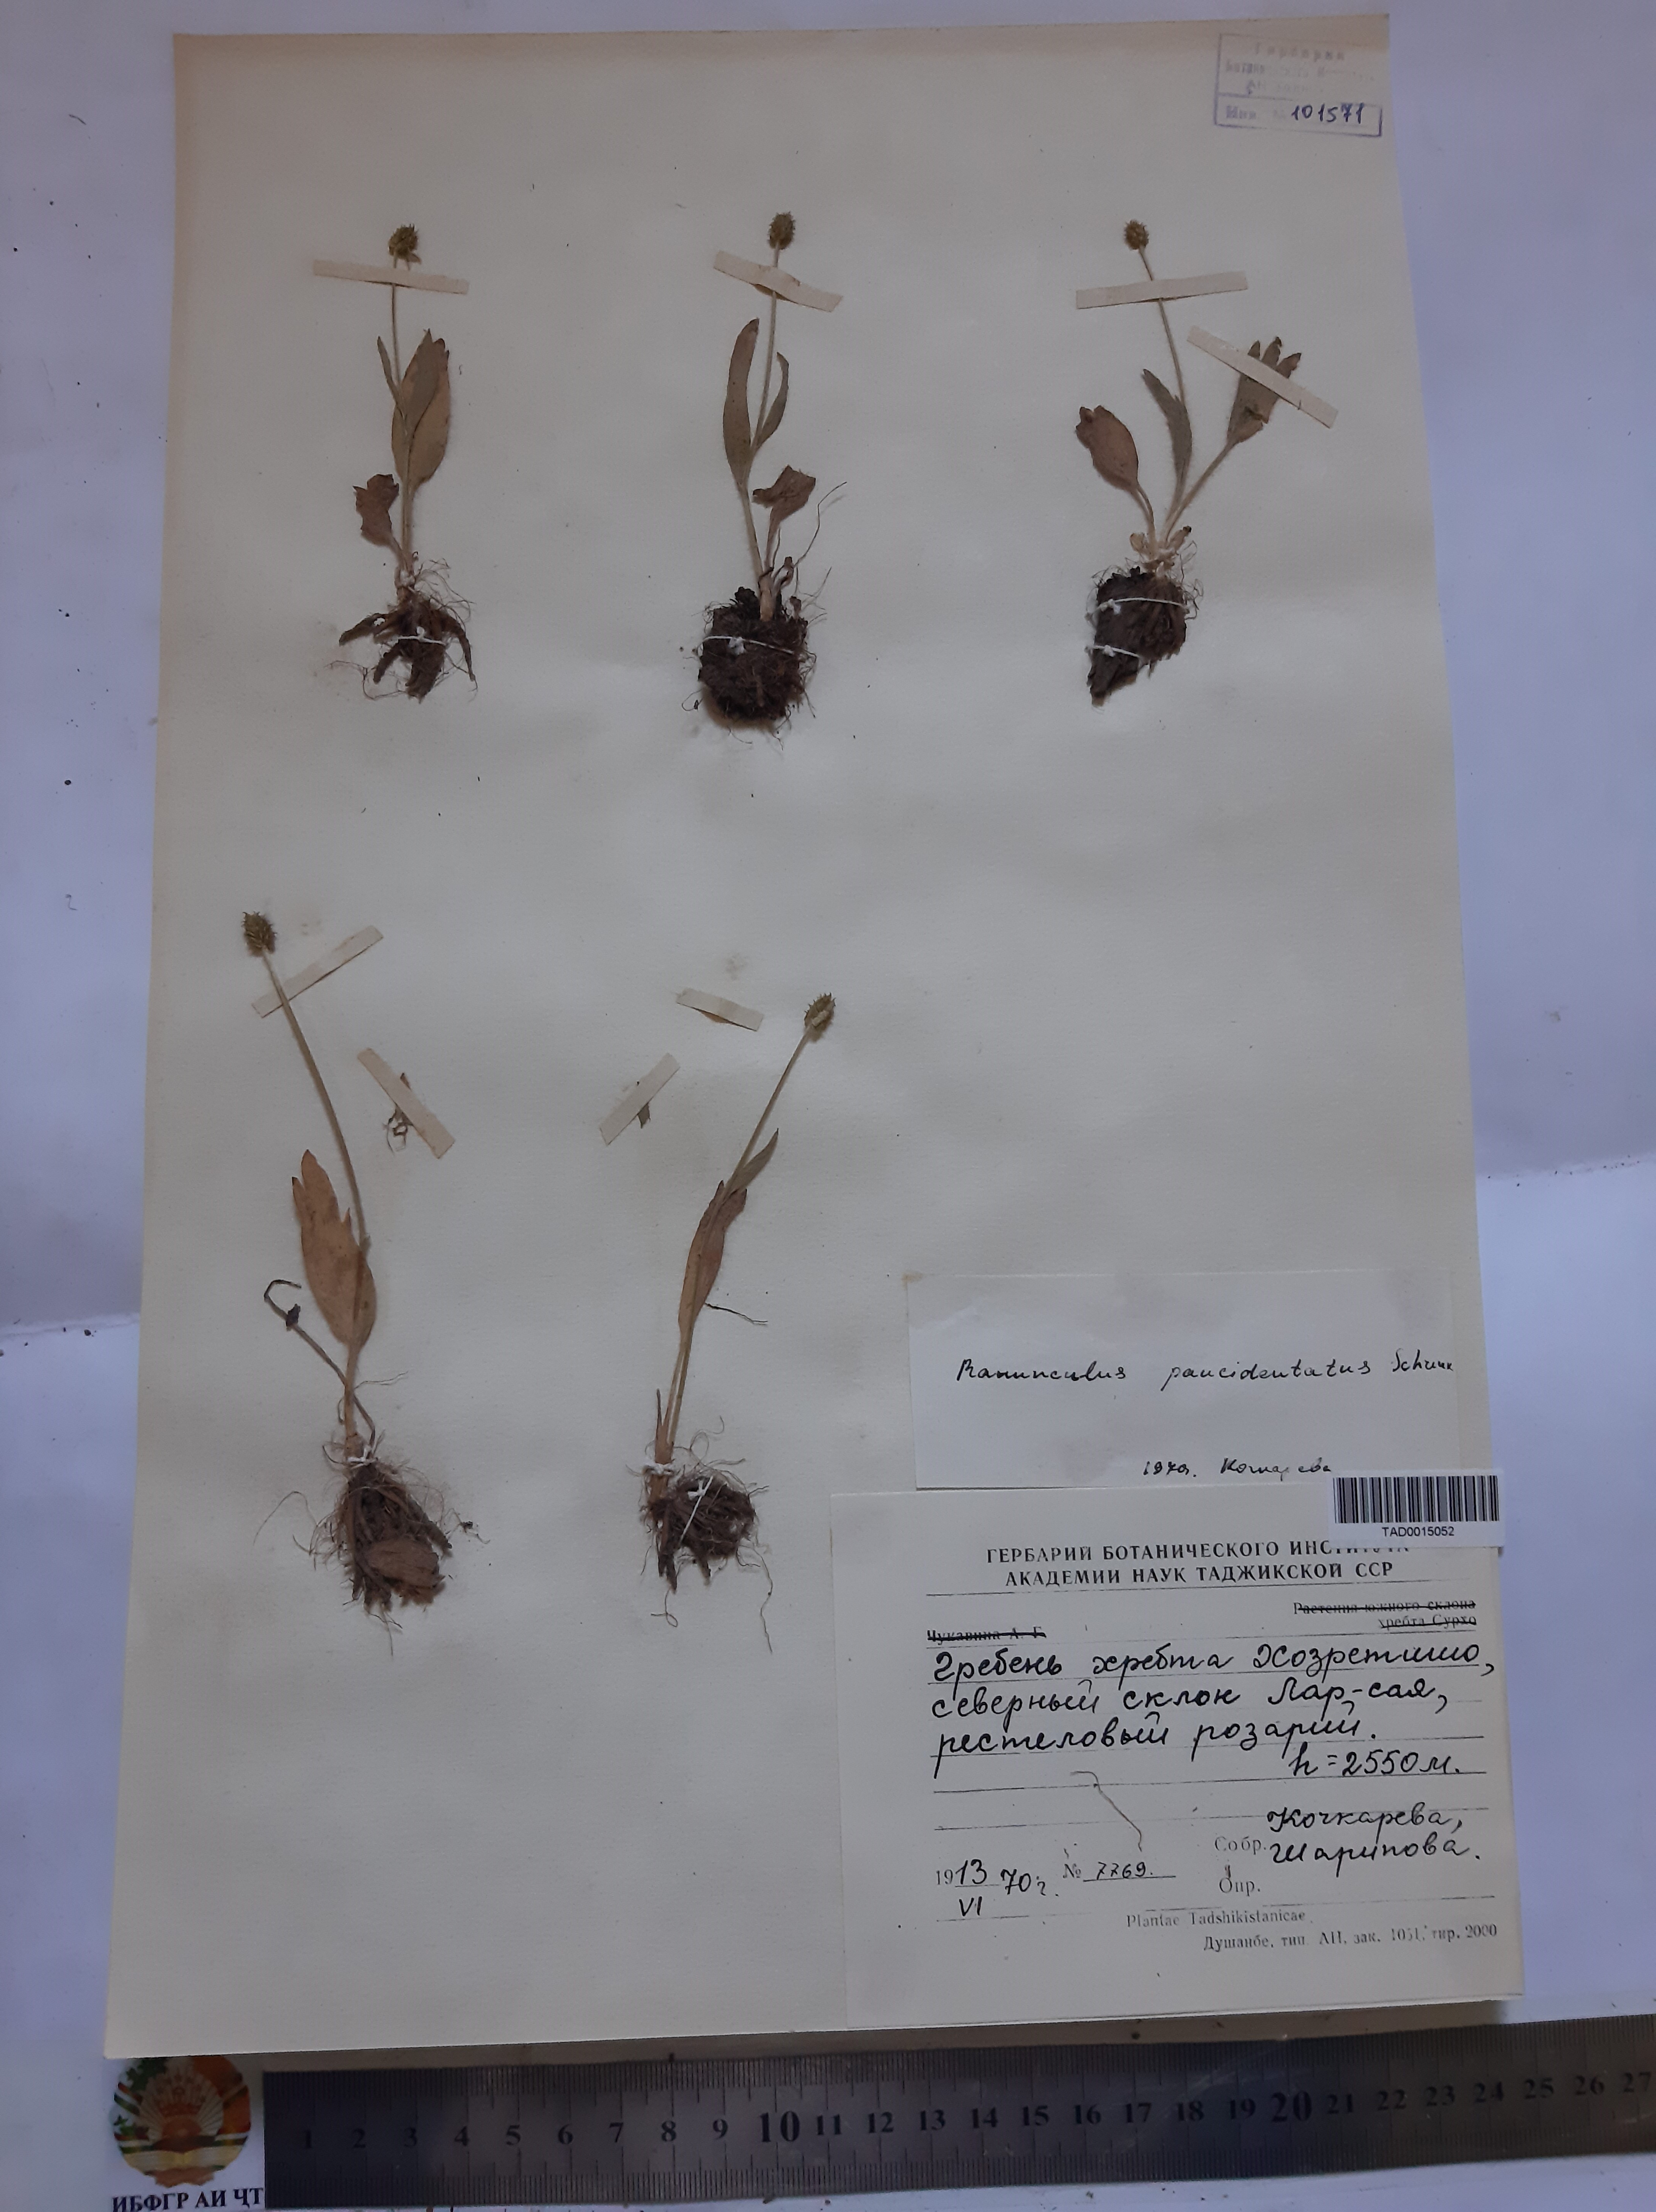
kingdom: Plantae
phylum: Tracheophyta
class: Magnoliopsida
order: Ranunculales
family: Ranunculaceae
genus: Ranunculus
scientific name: Ranunculus paucidentatus
